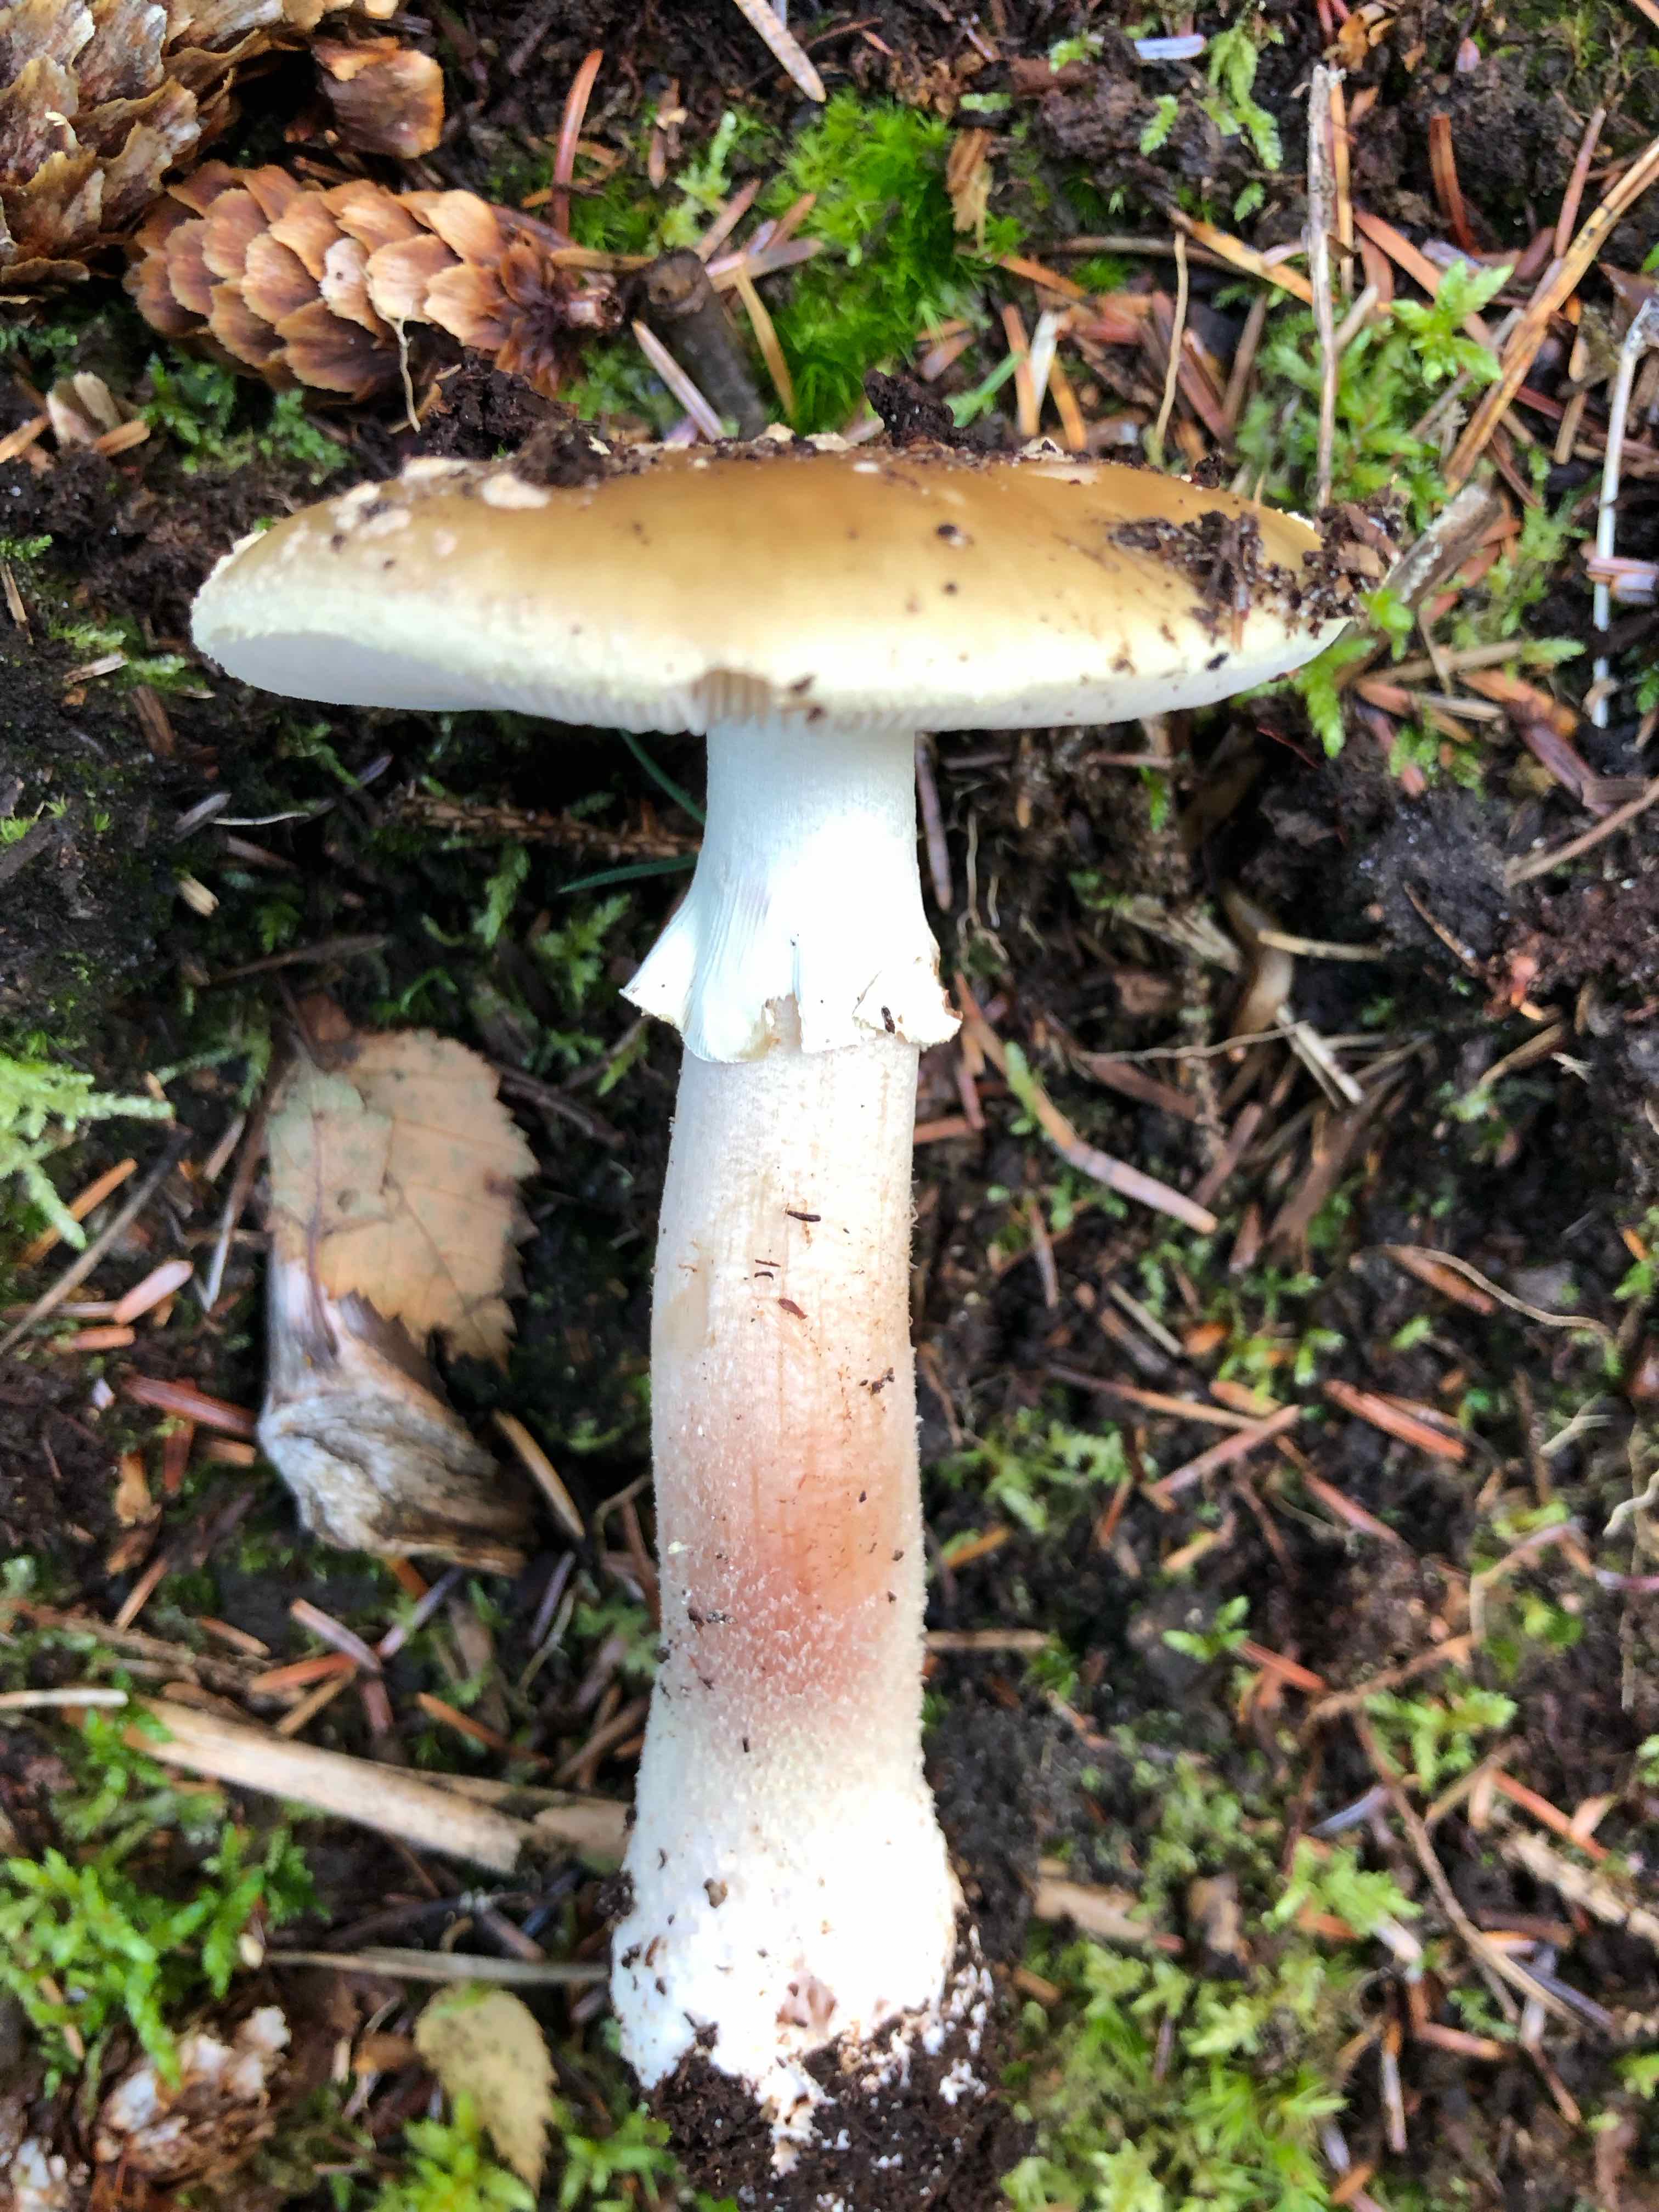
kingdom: Fungi
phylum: Basidiomycota
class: Agaricomycetes
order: Agaricales
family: Amanitaceae
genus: Amanita
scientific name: Amanita rubescens
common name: Blusher
